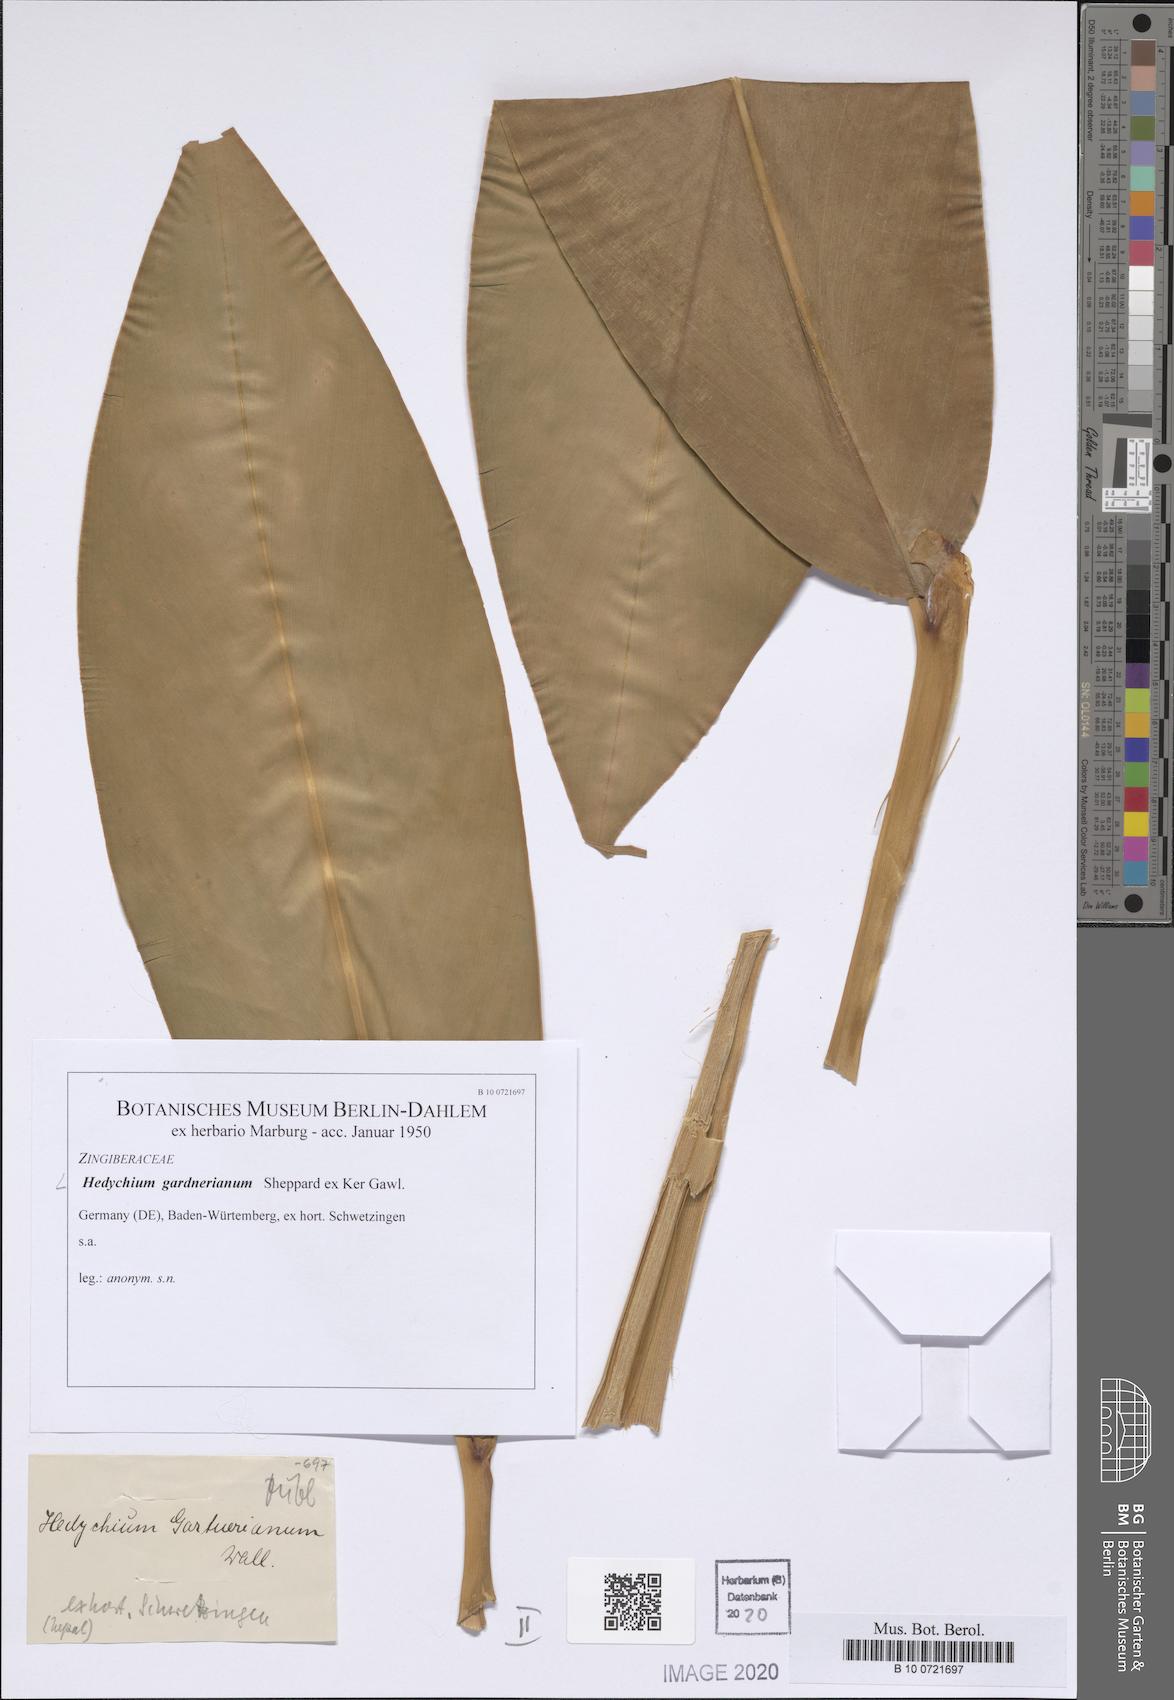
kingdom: Plantae
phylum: Tracheophyta
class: Liliopsida
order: Zingiberales
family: Zingiberaceae
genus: Hedychium
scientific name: Hedychium gardnerianum
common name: Himalayan ginger
